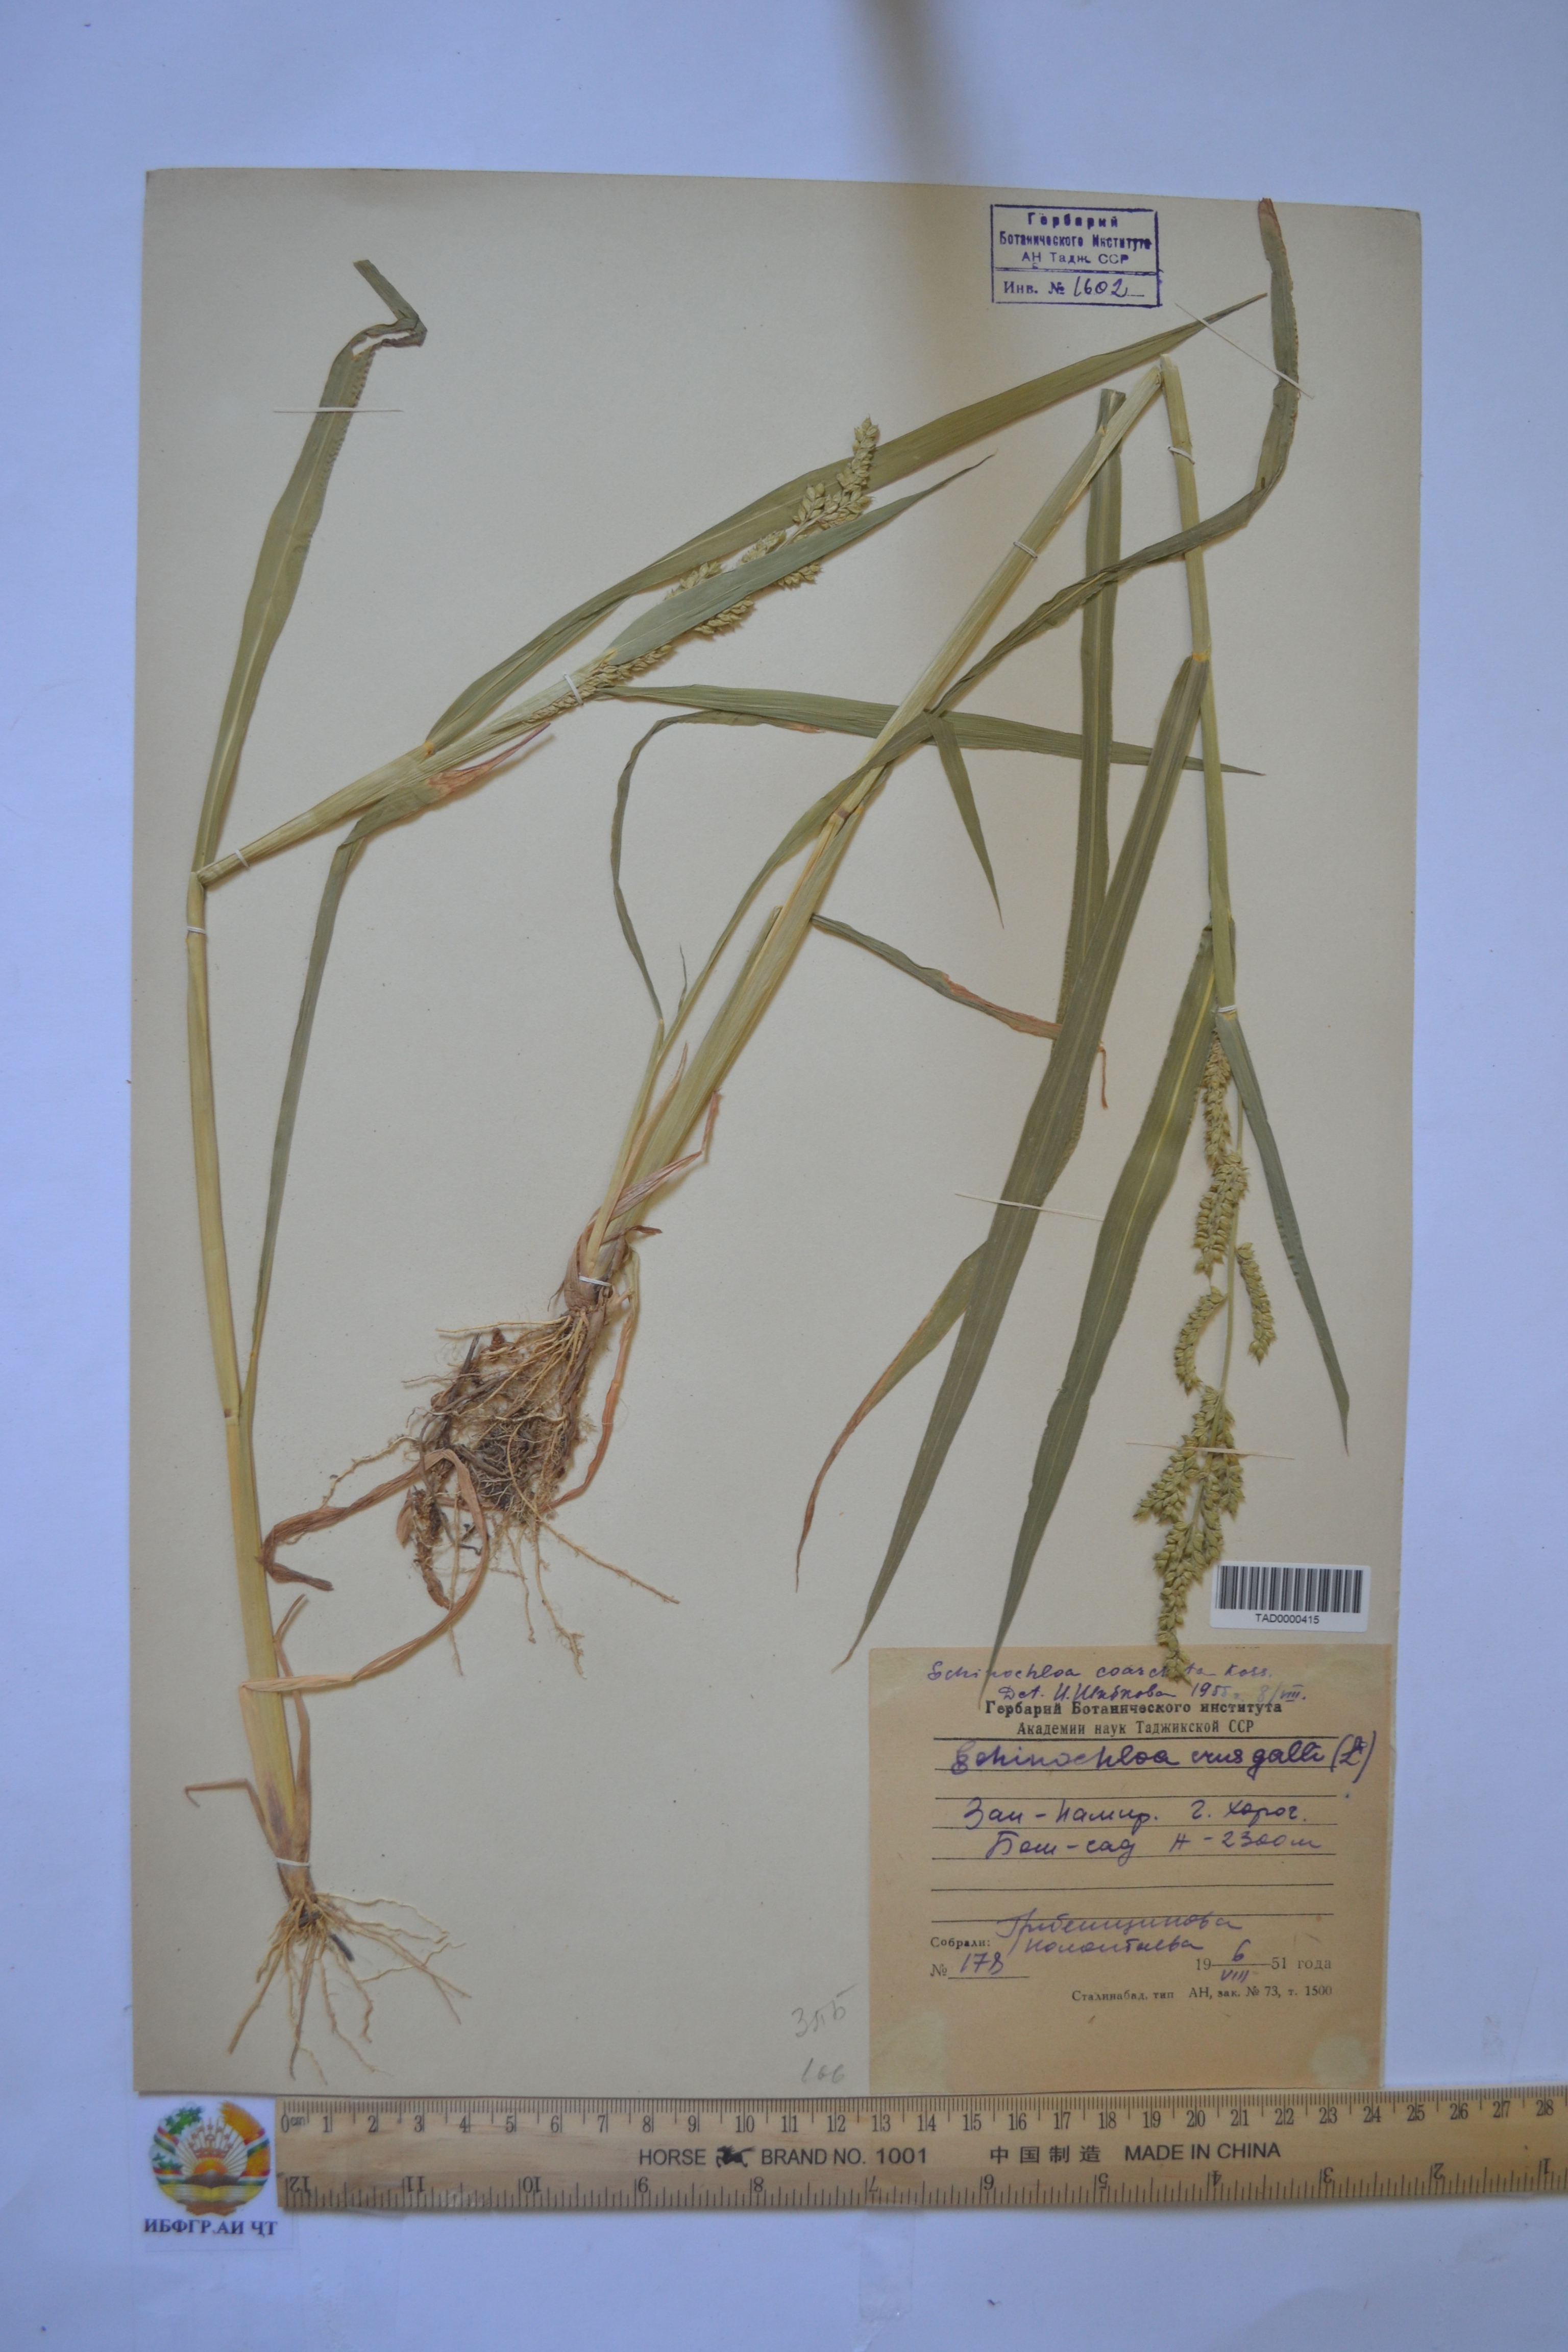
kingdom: Plantae
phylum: Tracheophyta
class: Liliopsida
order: Poales
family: Poaceae
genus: Echinochloa
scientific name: Echinochloa crus-galli
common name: Cockspur
